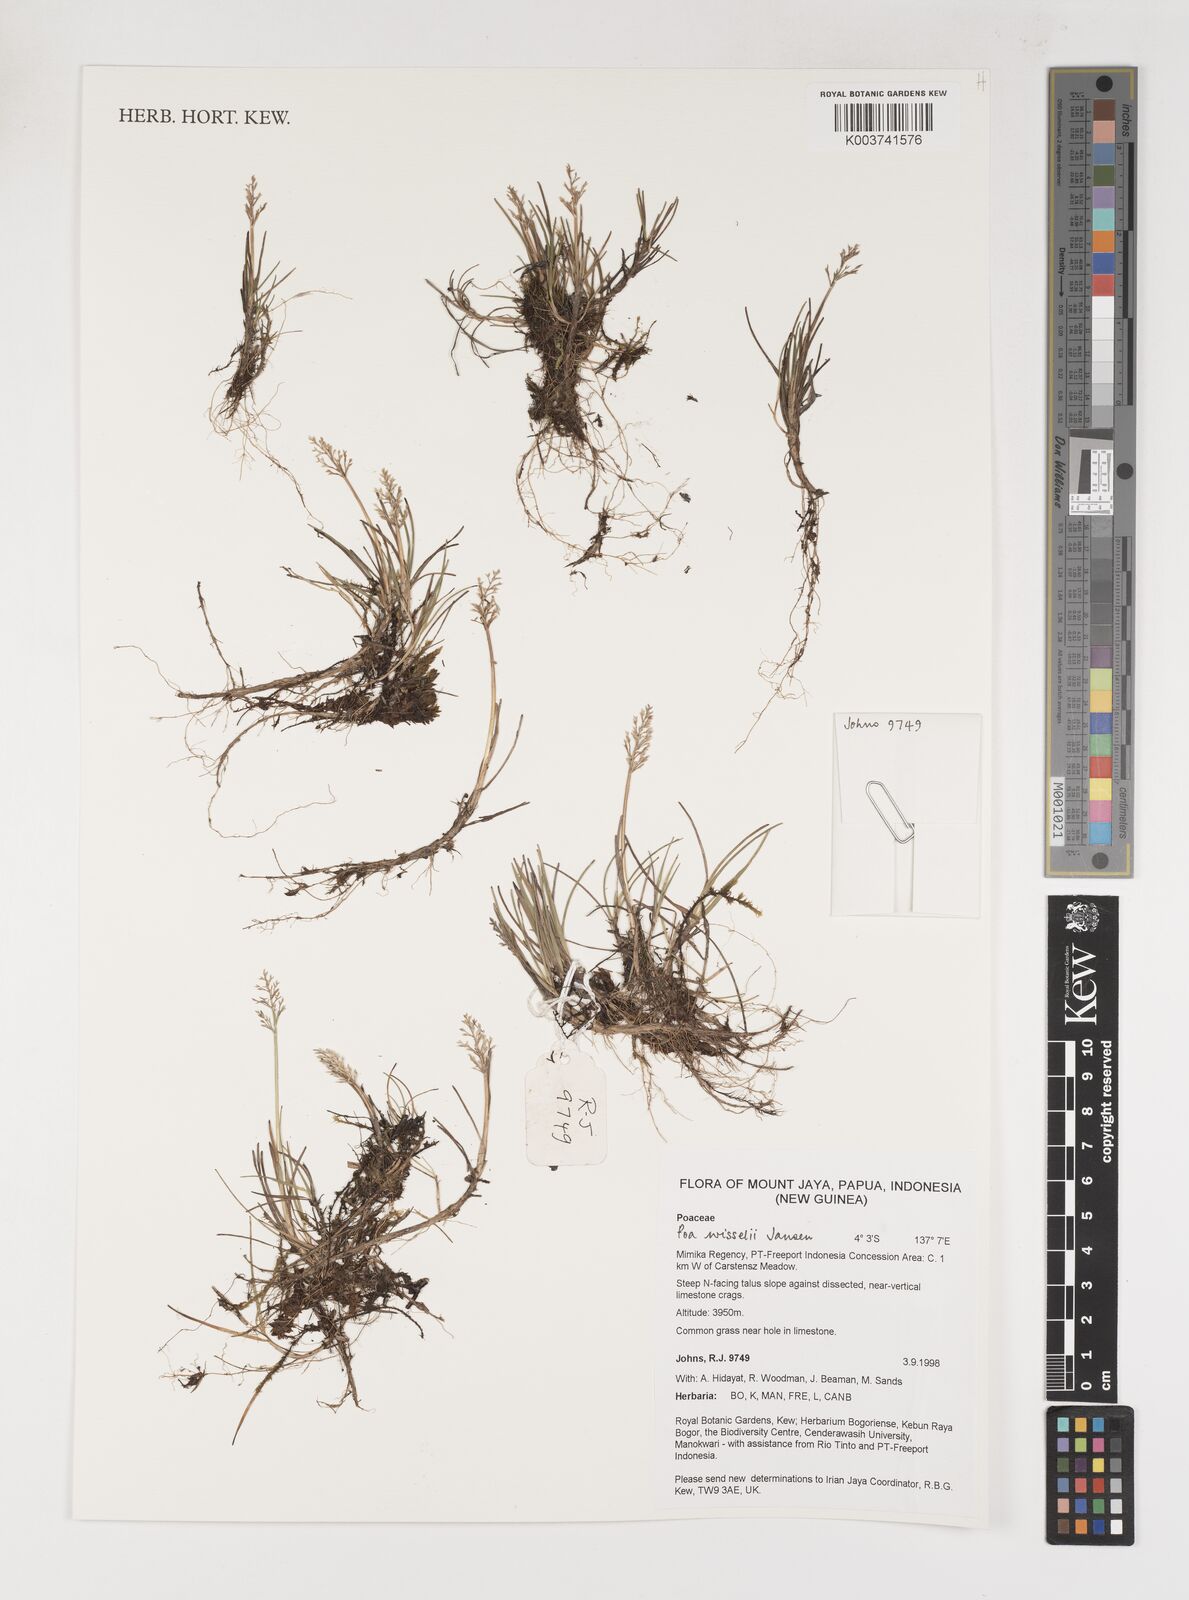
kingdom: Plantae
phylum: Tracheophyta
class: Liliopsida
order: Poales
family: Poaceae
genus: Poa
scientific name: Poa wisselii
